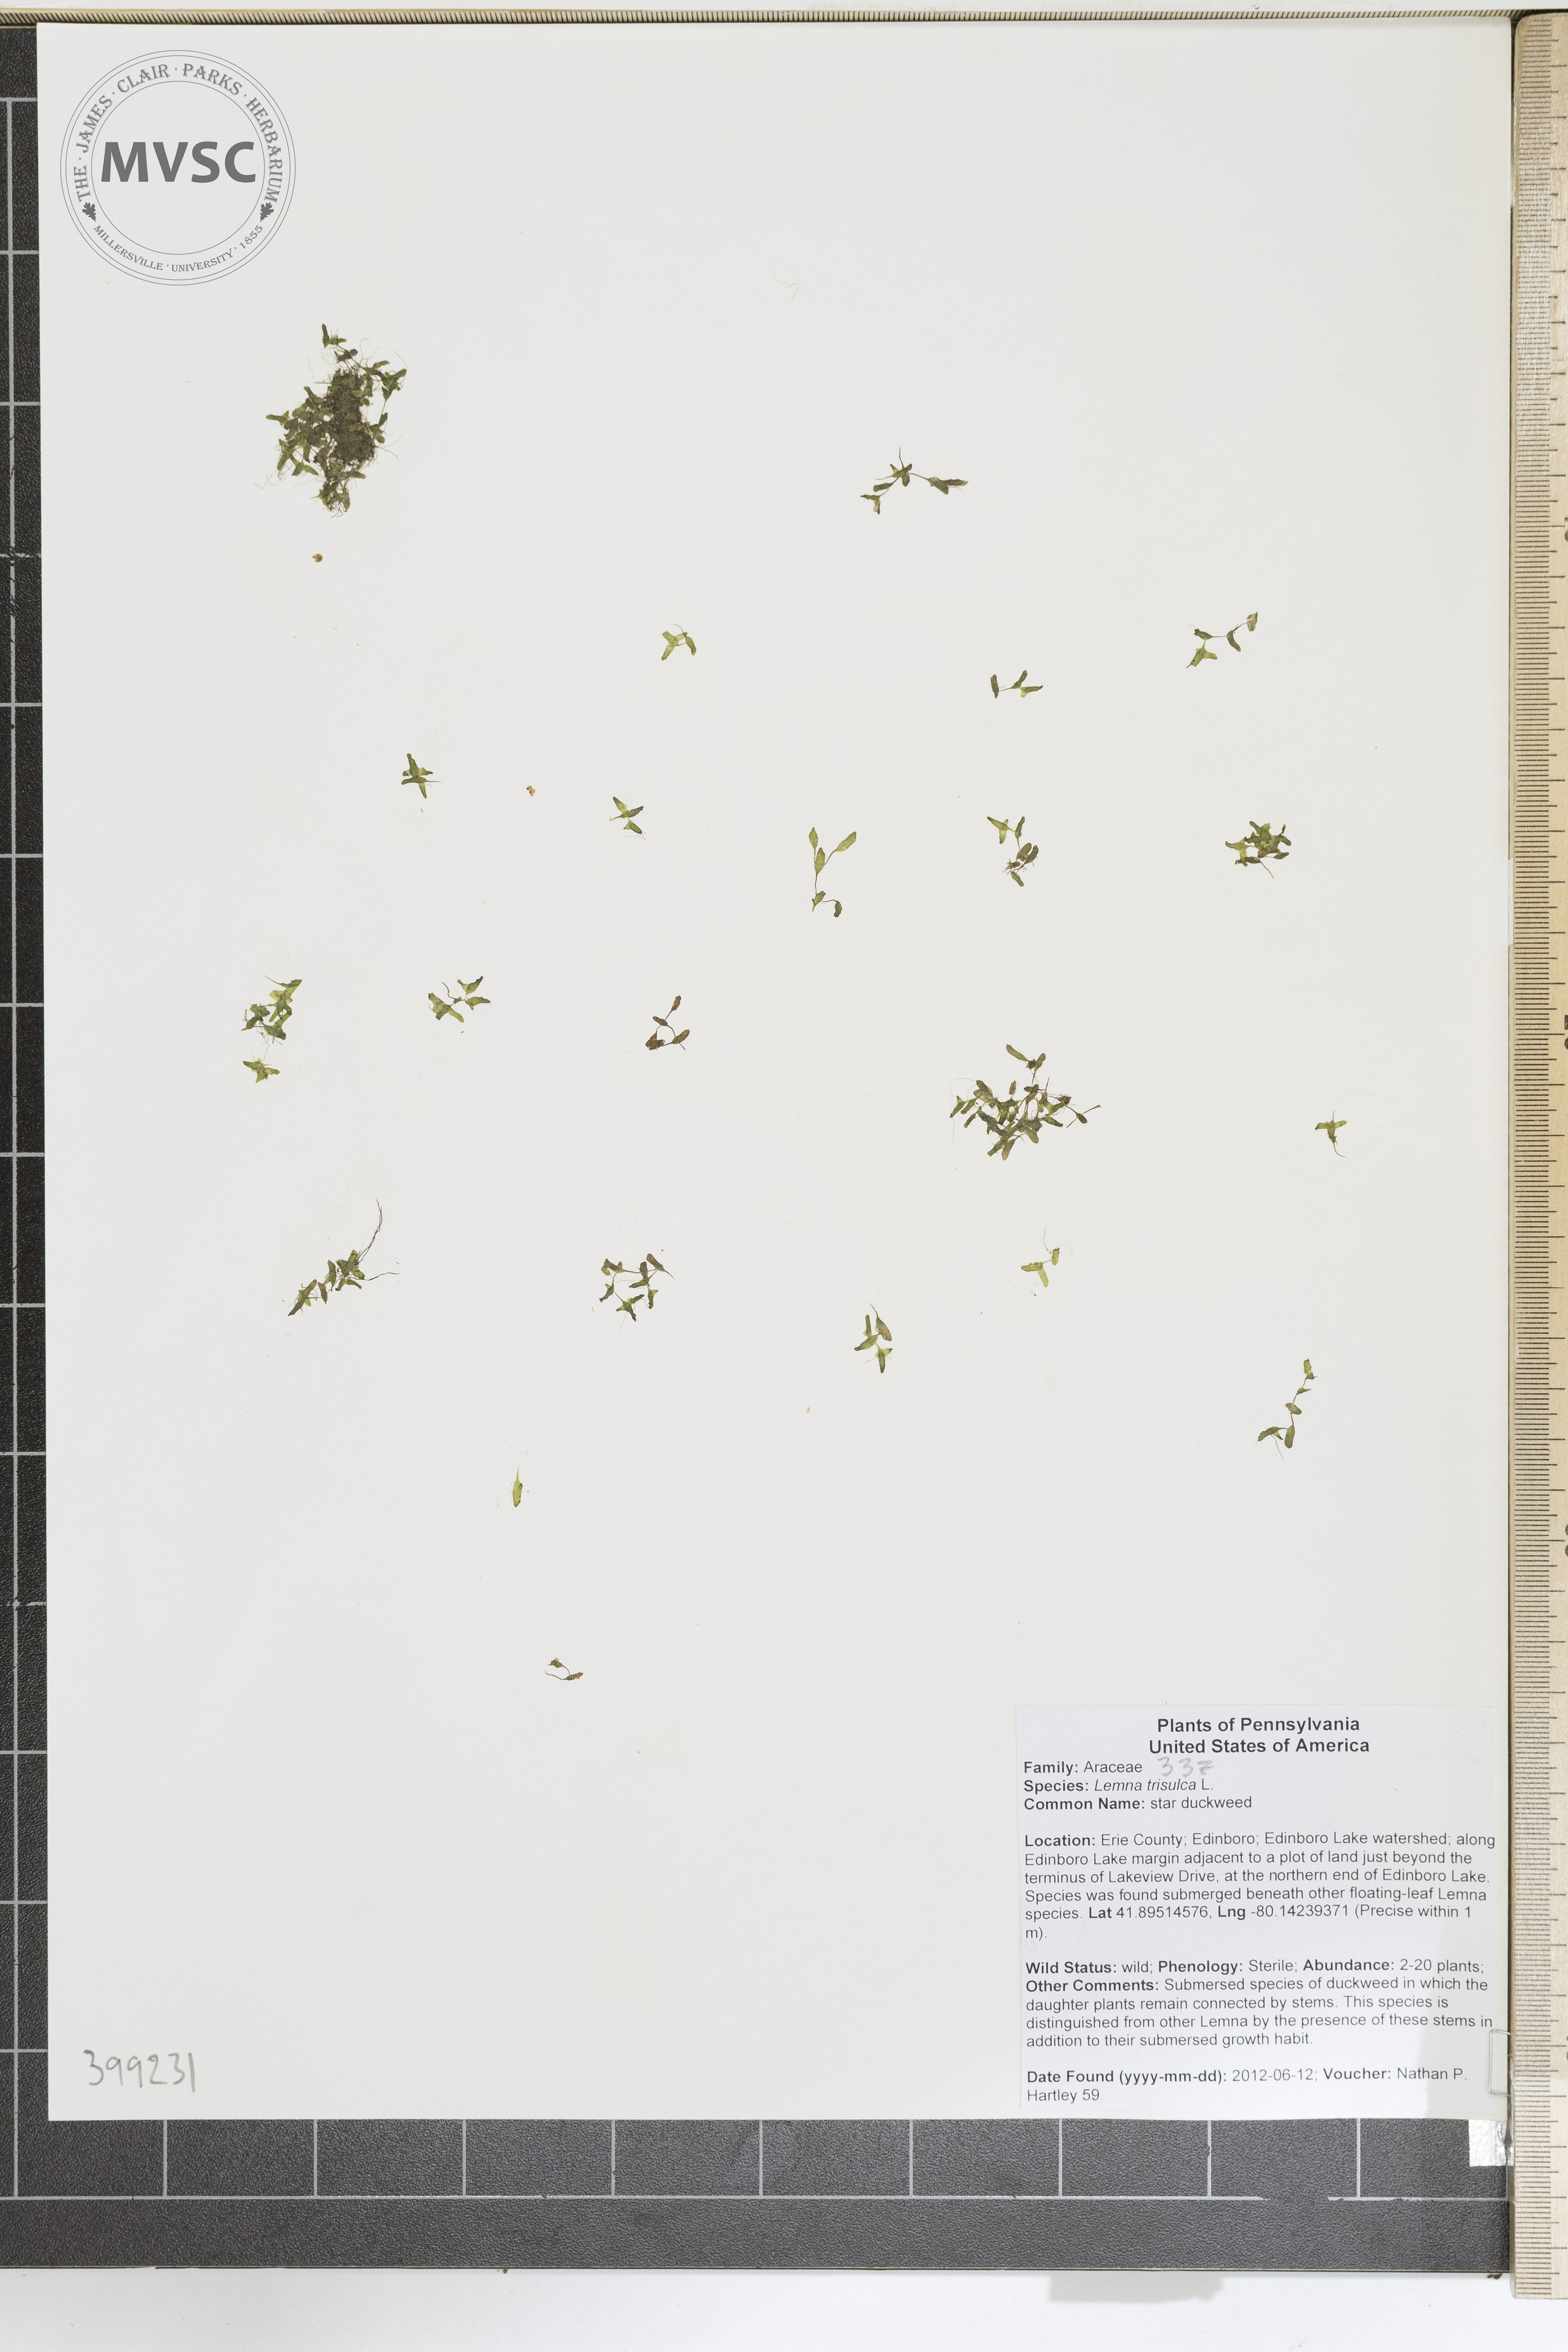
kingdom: Plantae
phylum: Tracheophyta
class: Liliopsida
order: Alismatales
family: Araceae
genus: Lemna
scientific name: Lemna trisulca
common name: Star duckweed
